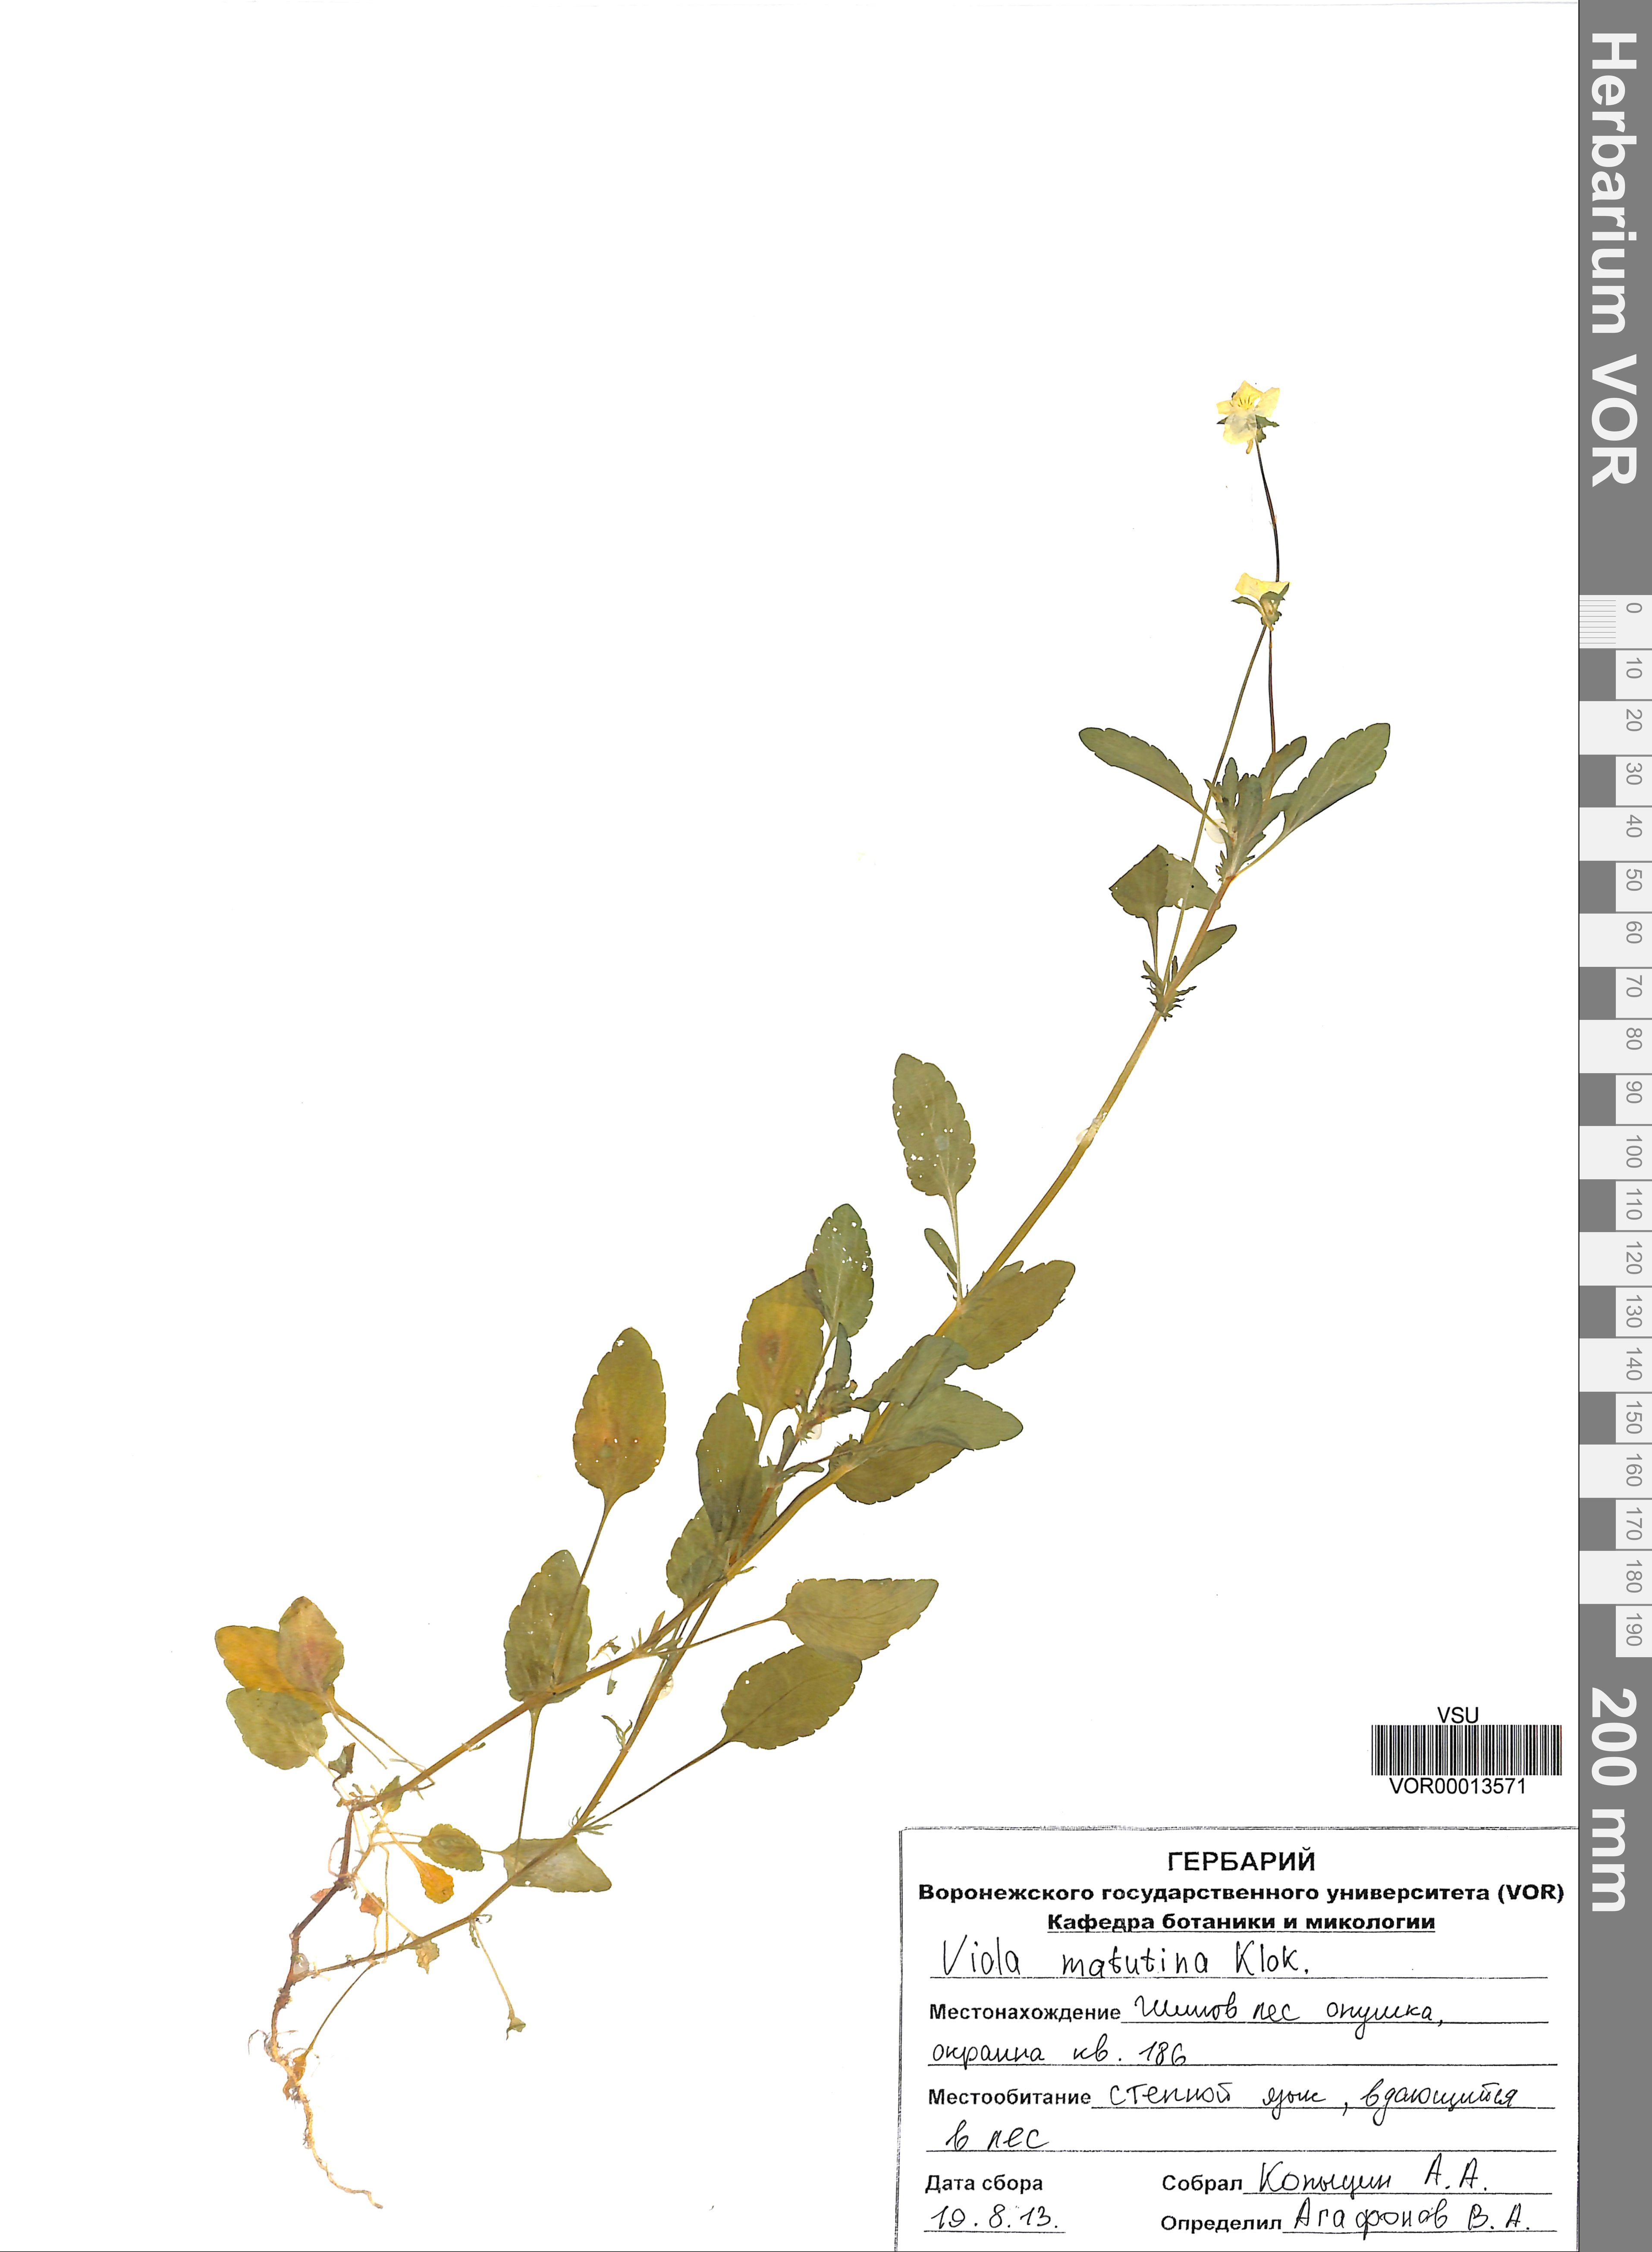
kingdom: Plantae
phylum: Tracheophyta
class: Magnoliopsida
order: Malpighiales
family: Violaceae
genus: Viola
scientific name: Viola tricolor
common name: Pansy
